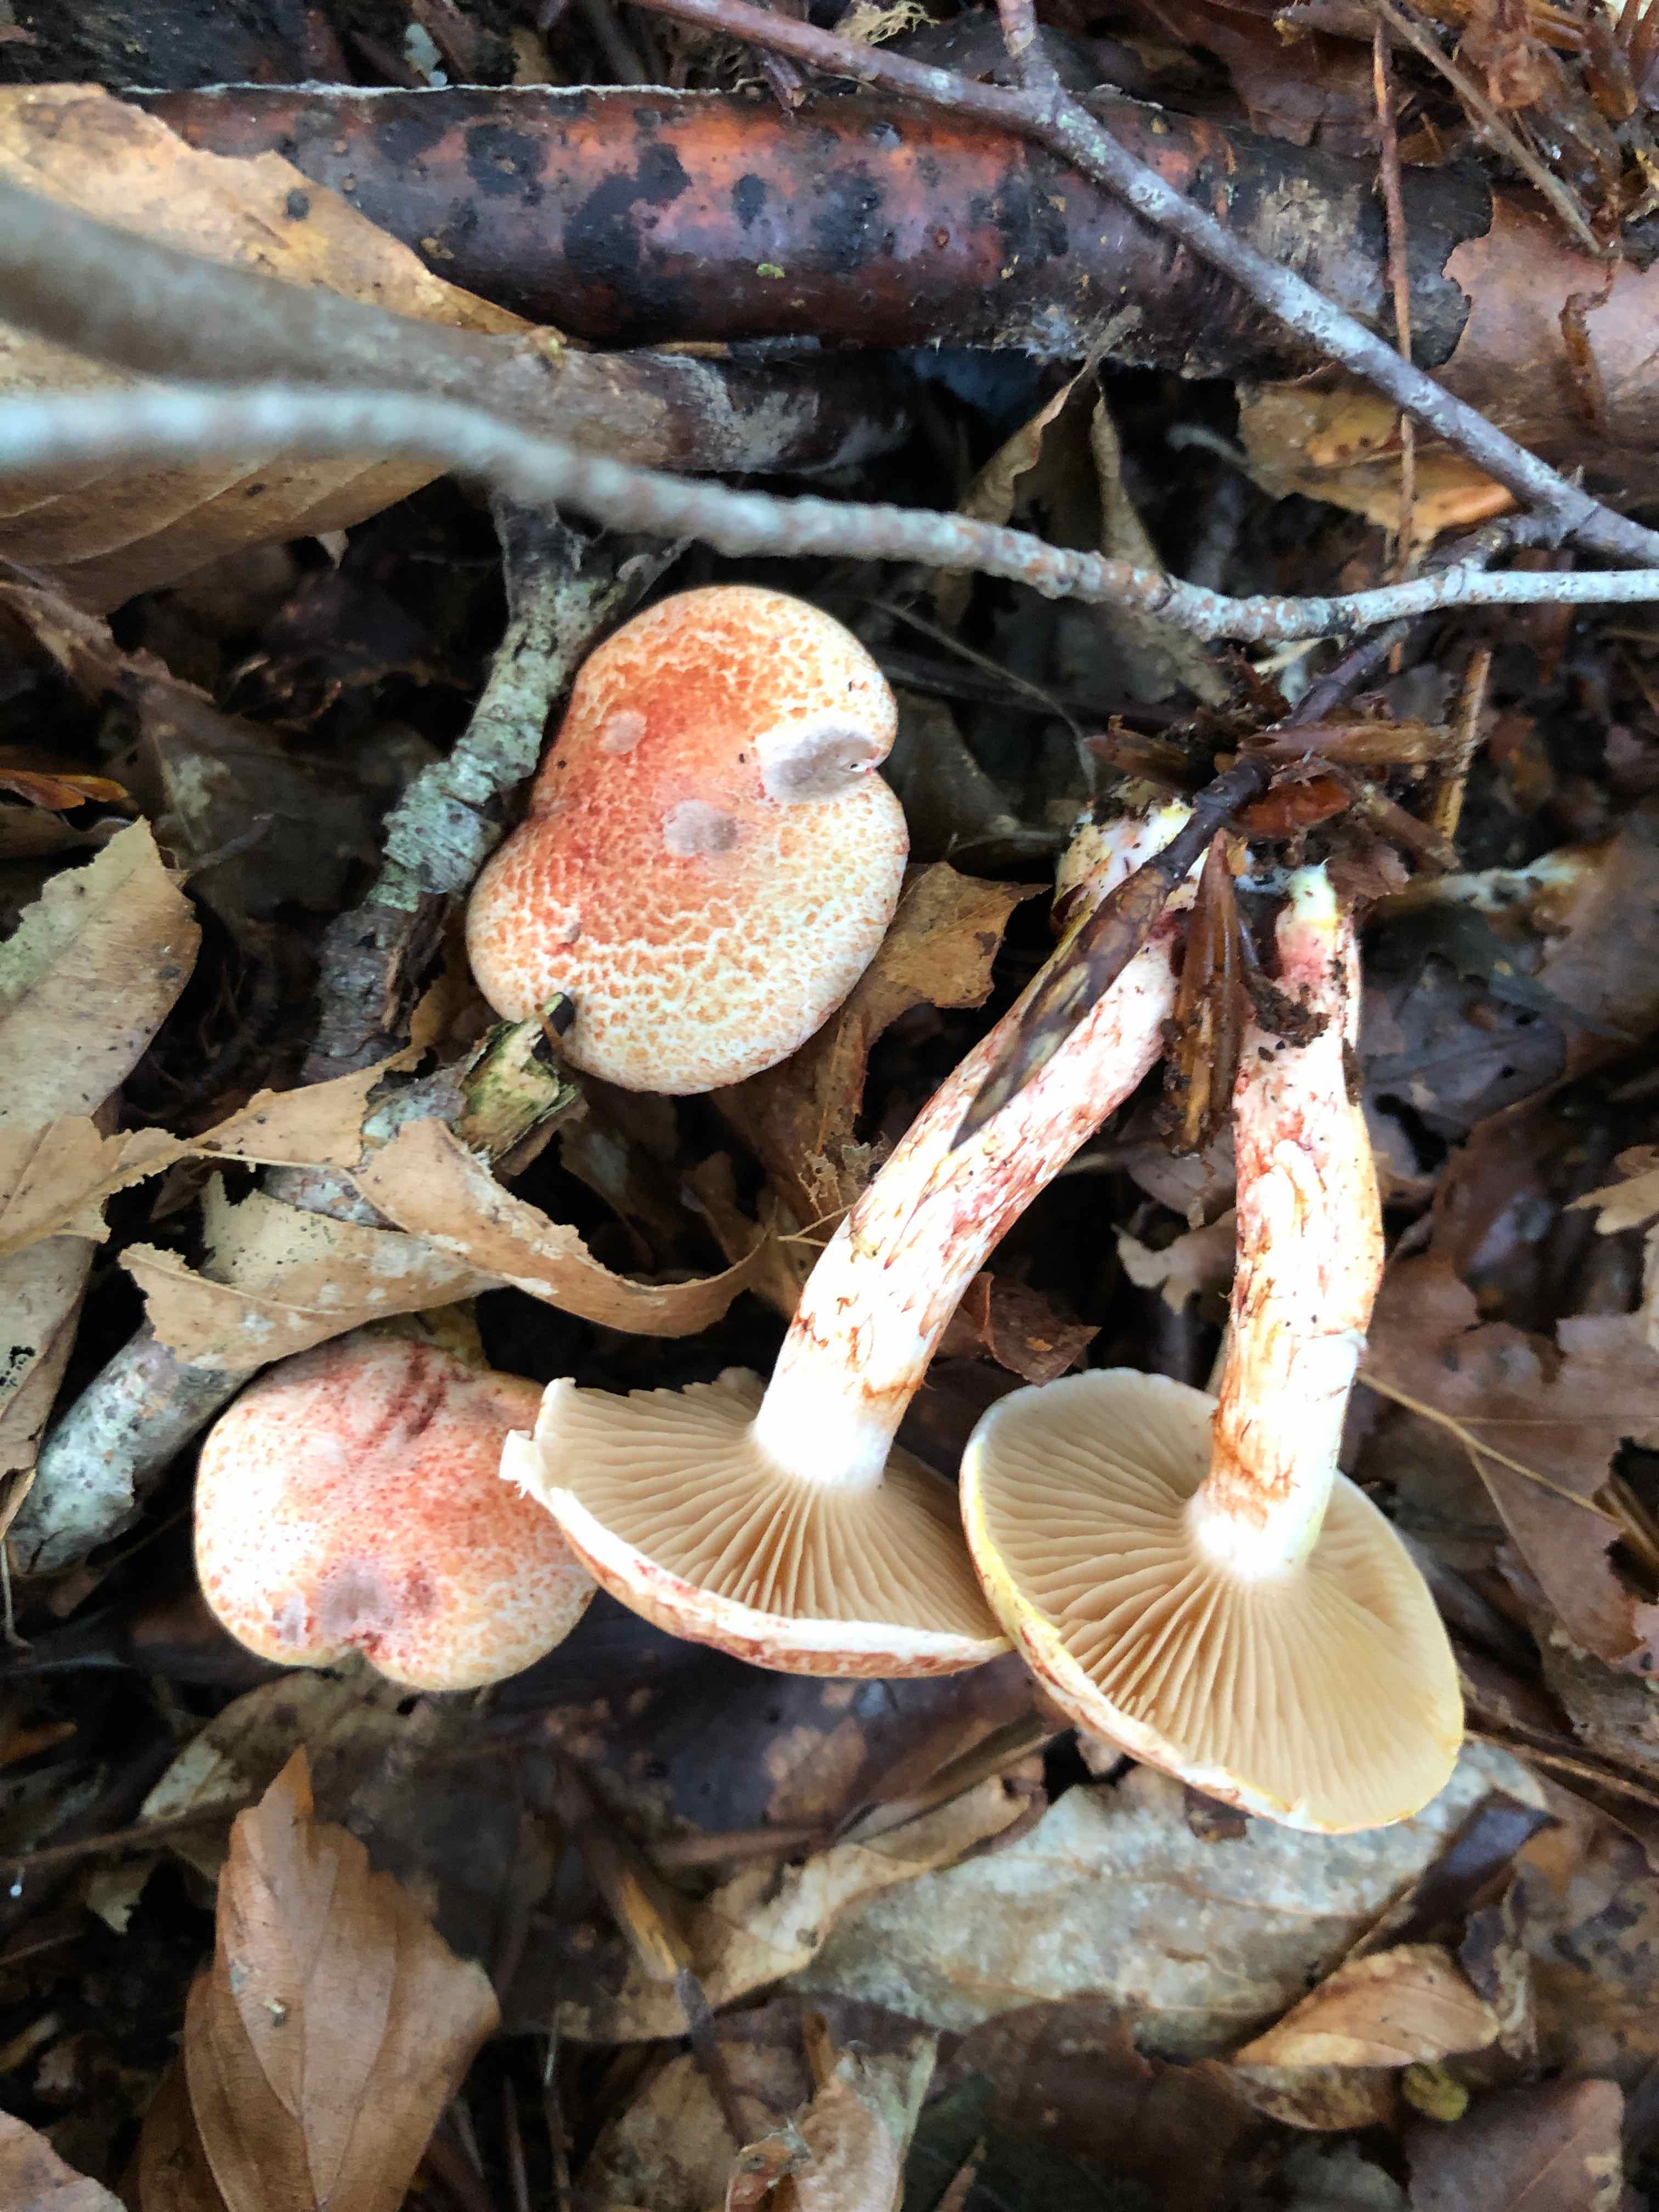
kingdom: Fungi
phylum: Basidiomycota
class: Agaricomycetes
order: Agaricales
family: Cortinariaceae
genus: Cortinarius
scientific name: Cortinarius bolaris
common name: cinnoberskællet slørhat
